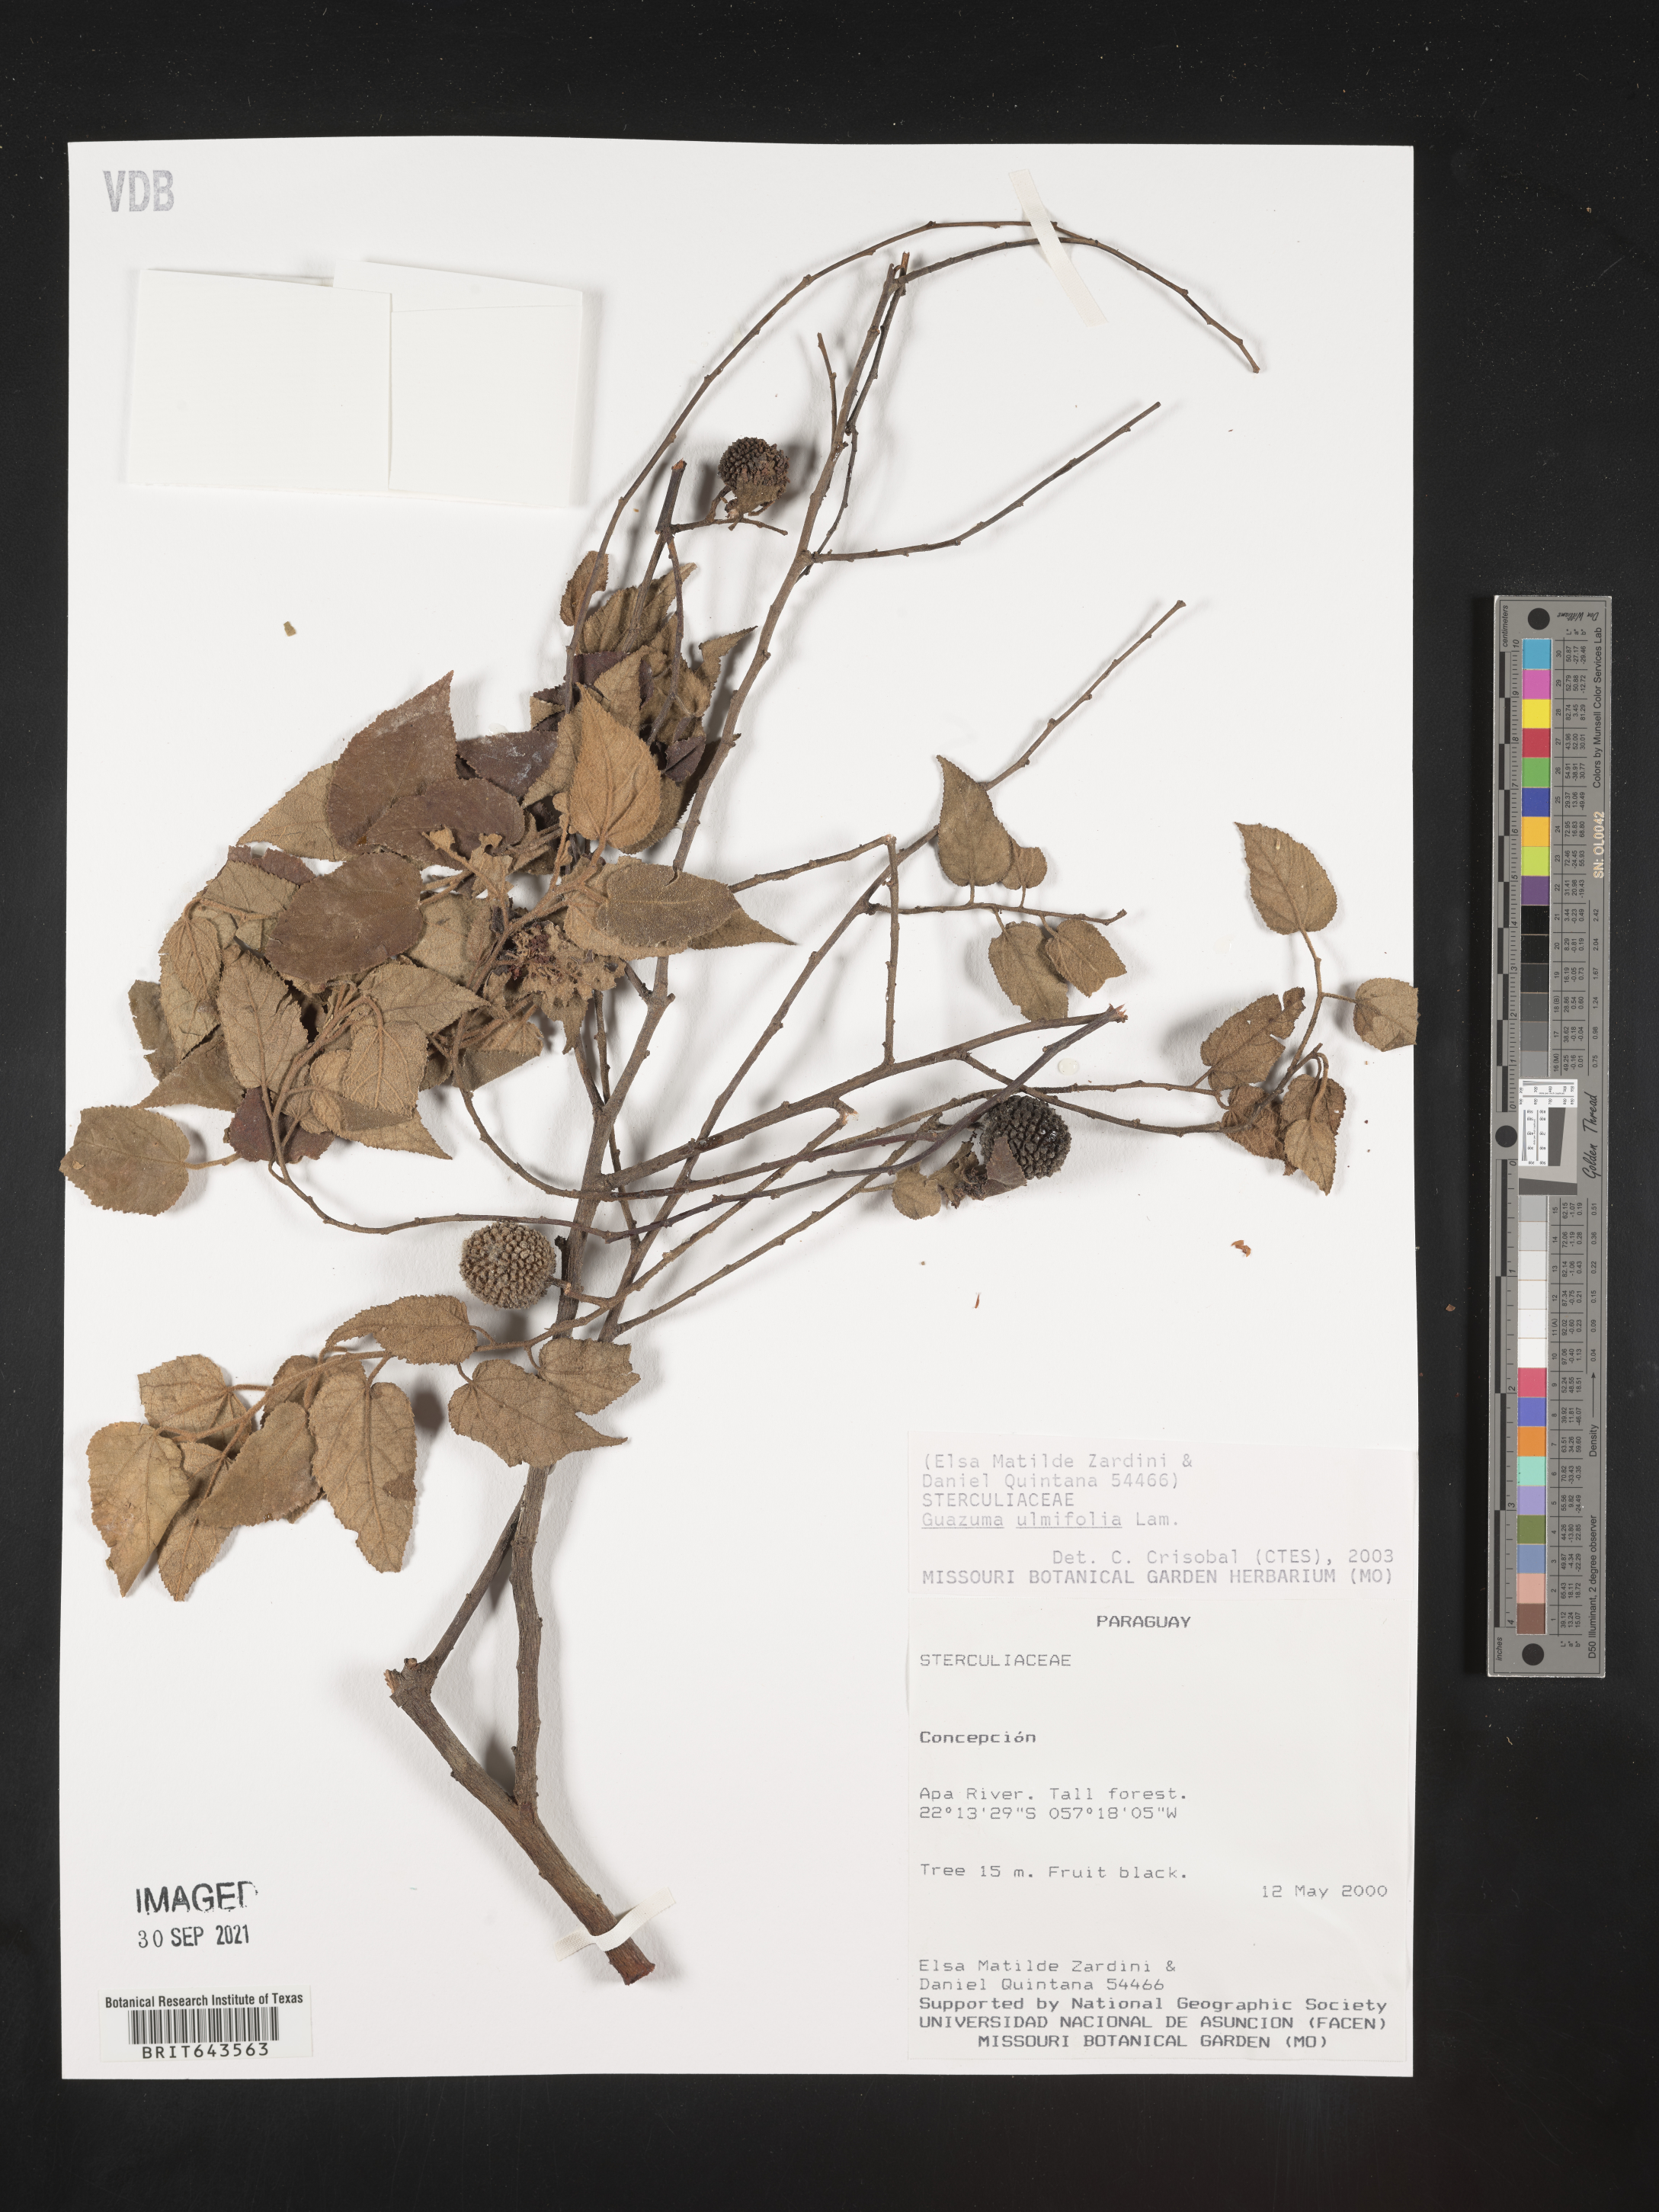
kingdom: Plantae
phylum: Tracheophyta
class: Magnoliopsida
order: Malvales
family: Malvaceae
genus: Guazuma
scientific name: Guazuma
